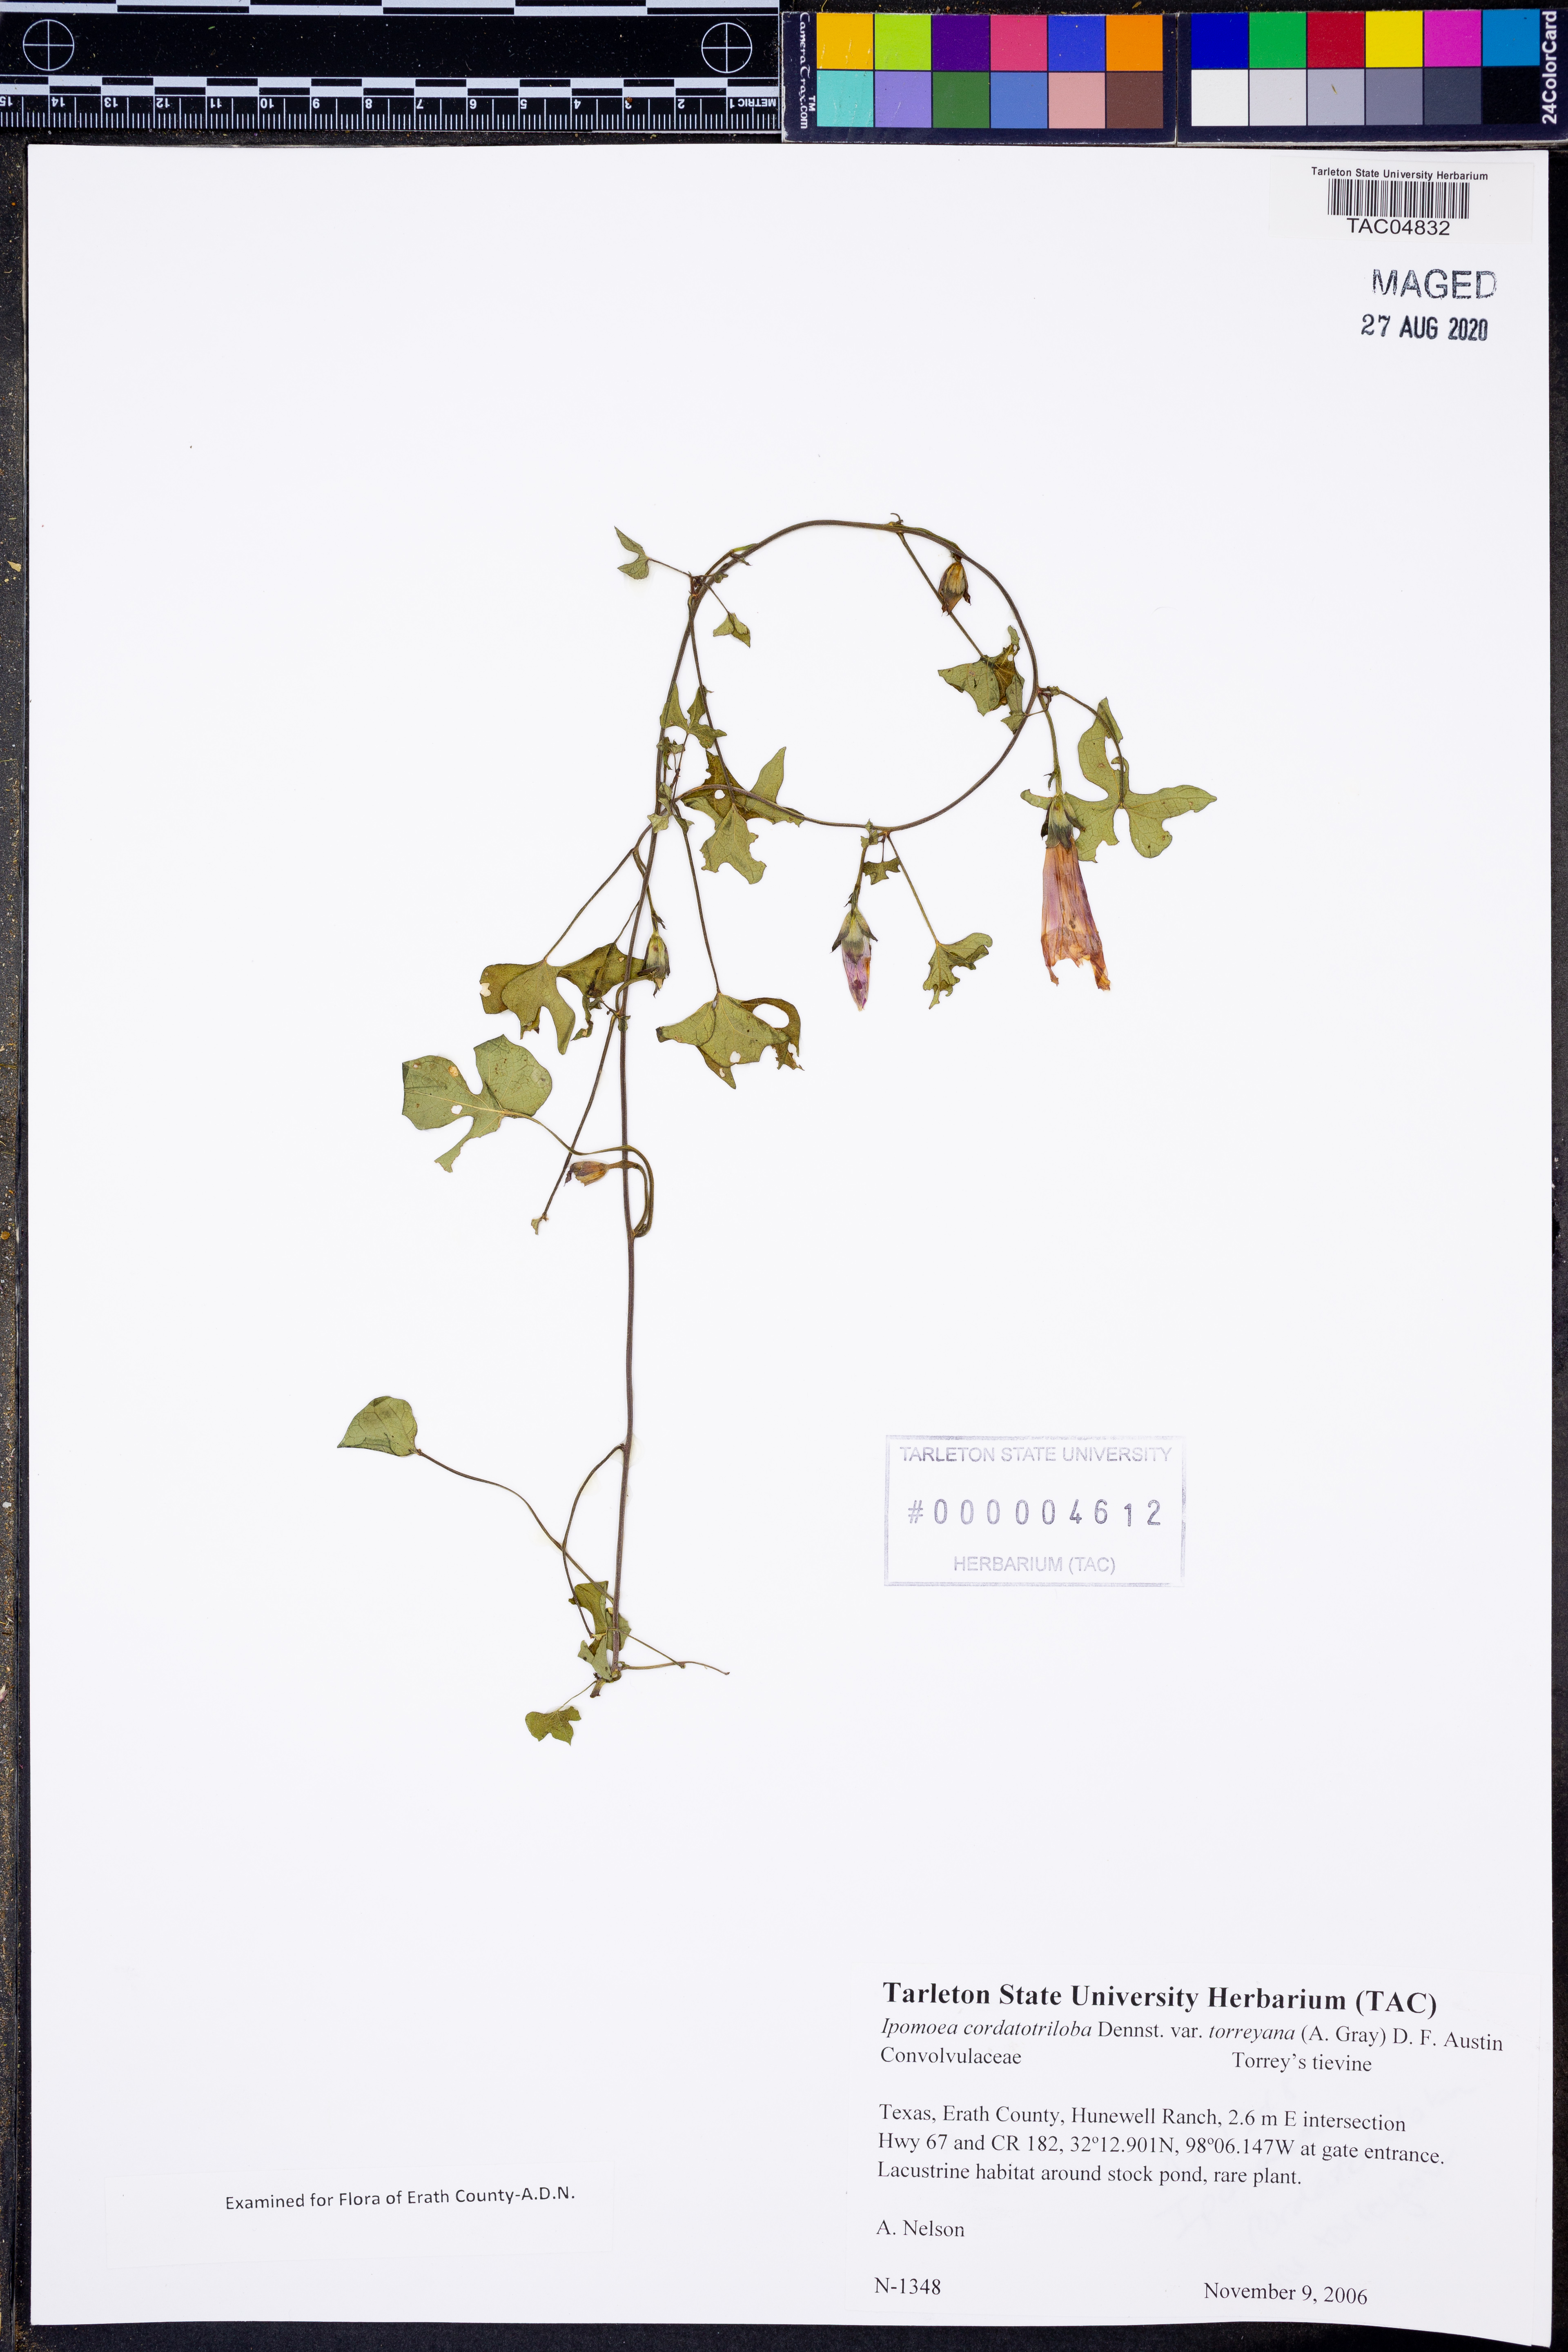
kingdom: Plantae
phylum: Tracheophyta
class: Magnoliopsida
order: Solanales
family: Convolvulaceae
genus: Ipomoea
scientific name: Ipomoea cordatotriloba
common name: Cotton morning glory
